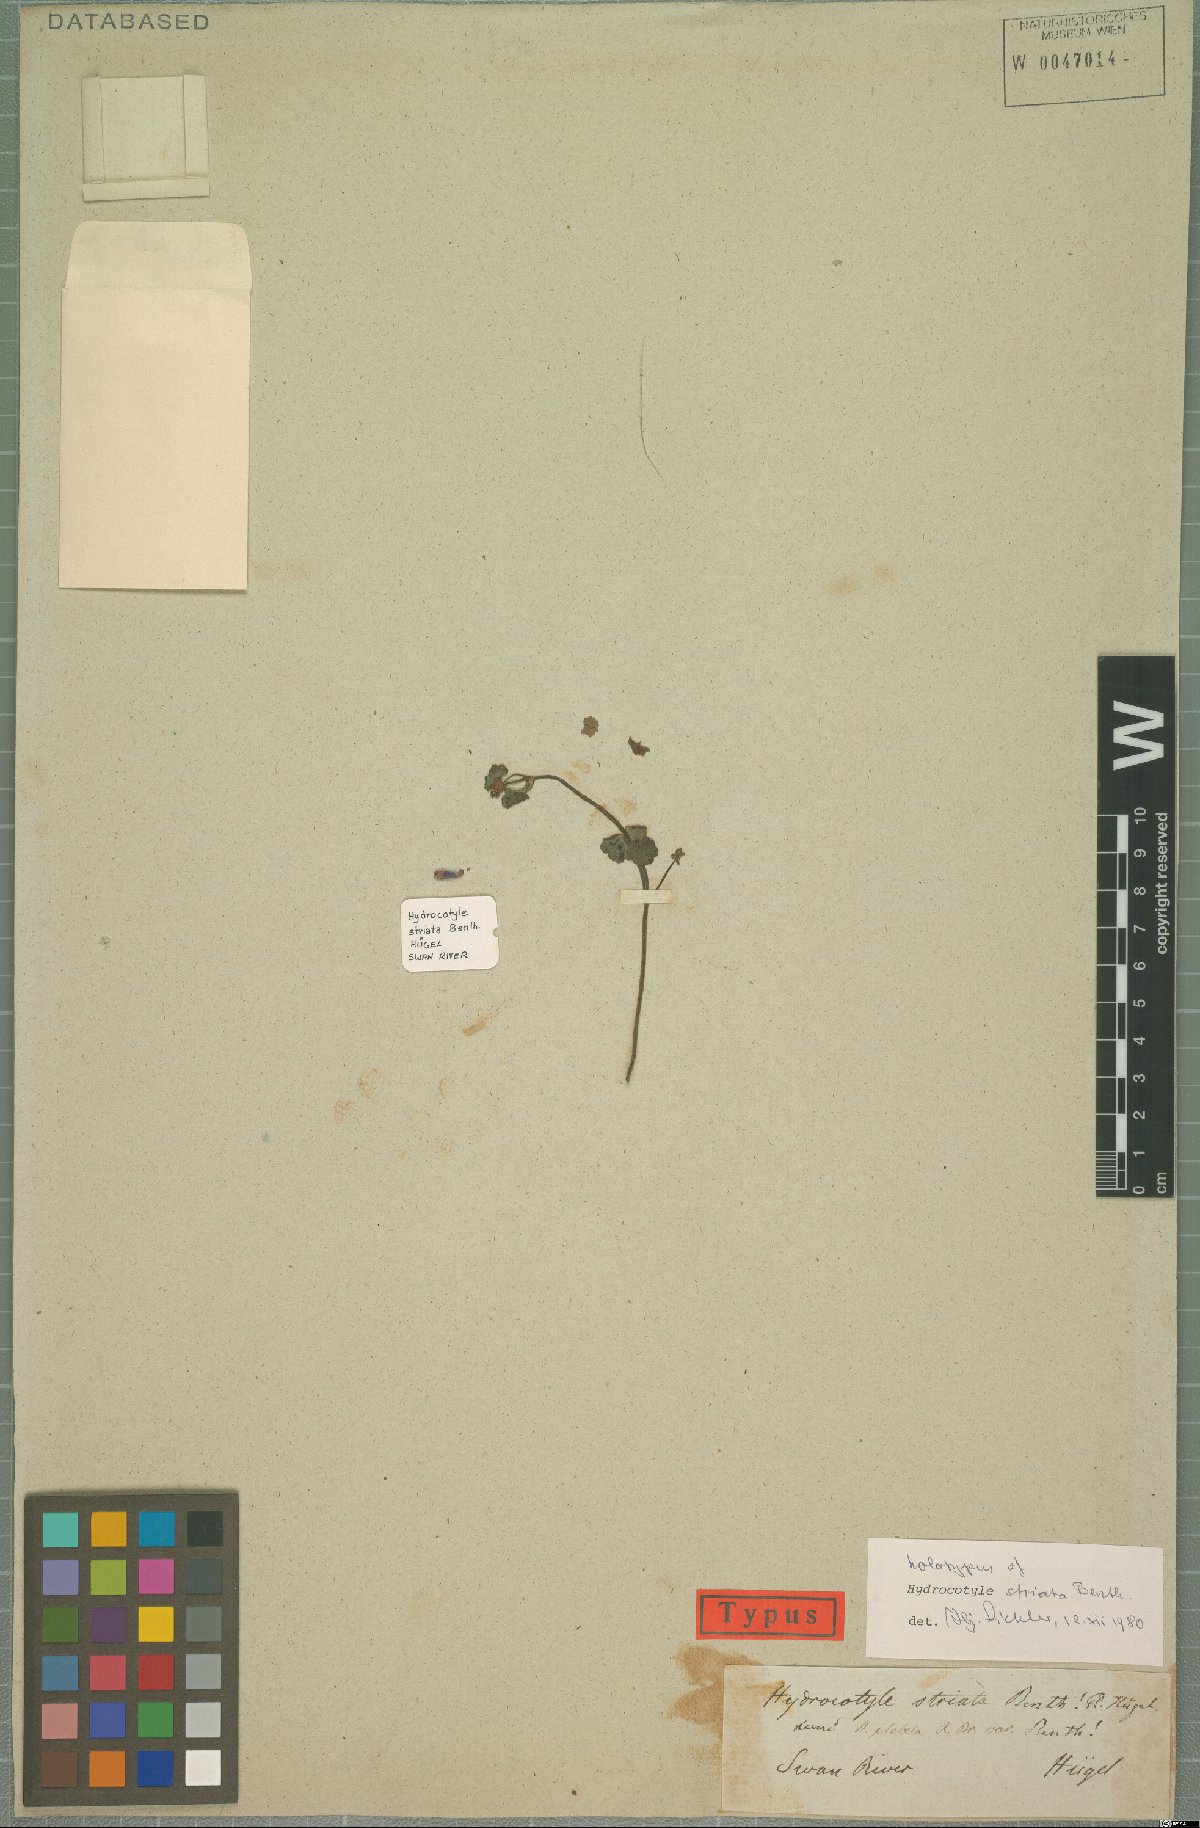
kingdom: Plantae
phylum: Tracheophyta
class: Magnoliopsida
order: Apiales
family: Araliaceae
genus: Hydrocotyle
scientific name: Hydrocotyle striata
